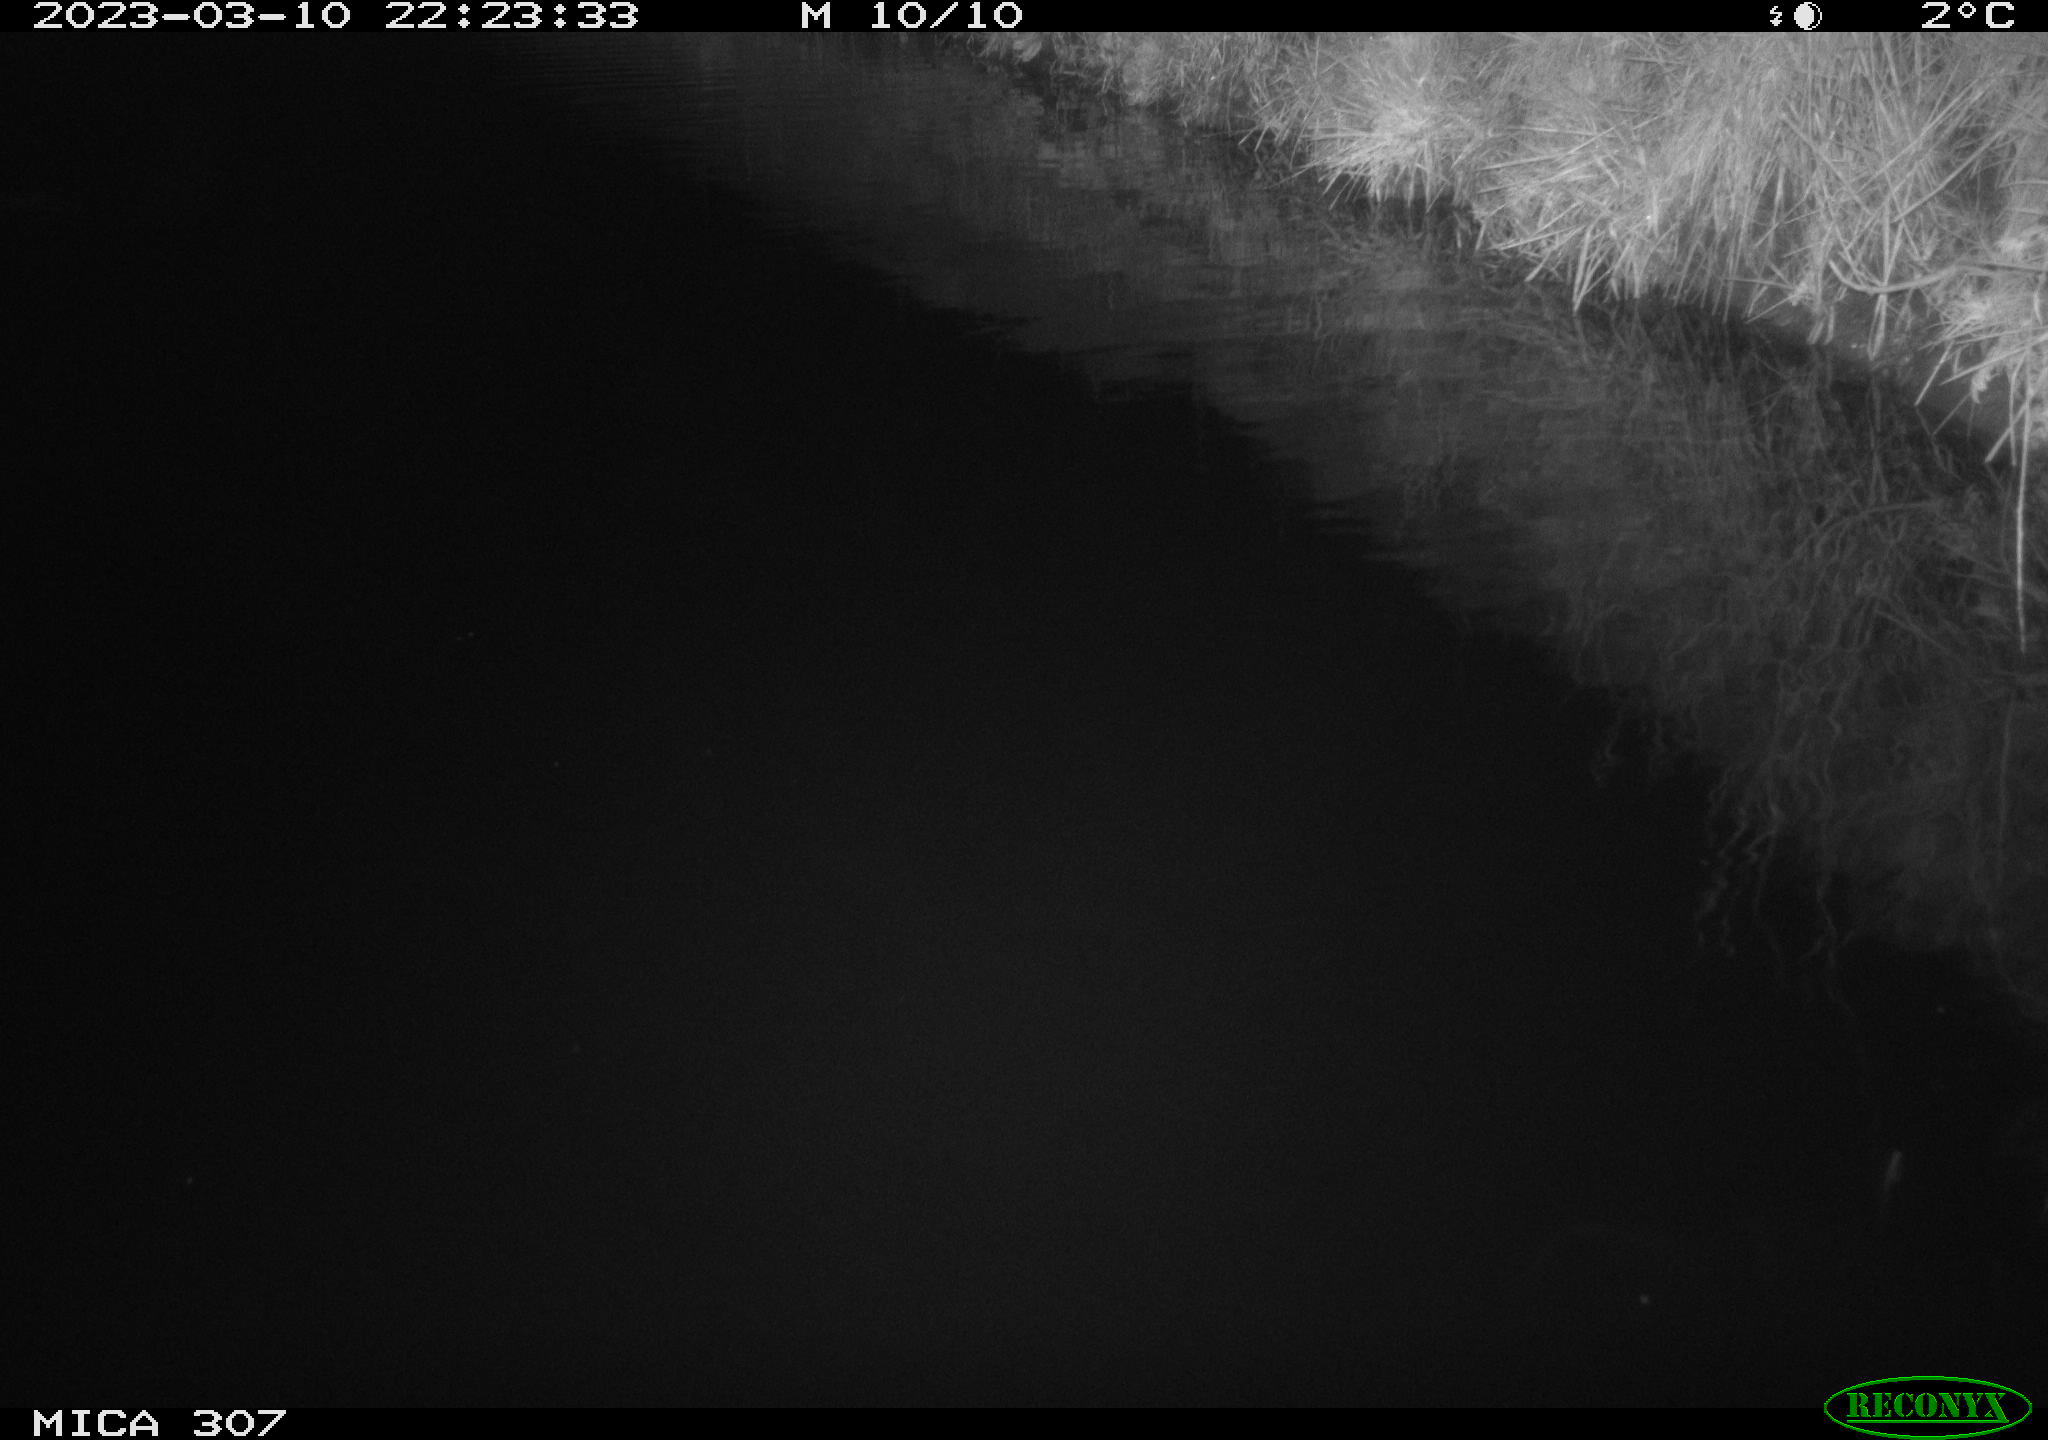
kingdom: Animalia
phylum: Chordata
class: Aves
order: Anseriformes
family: Anatidae
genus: Anas
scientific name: Anas
